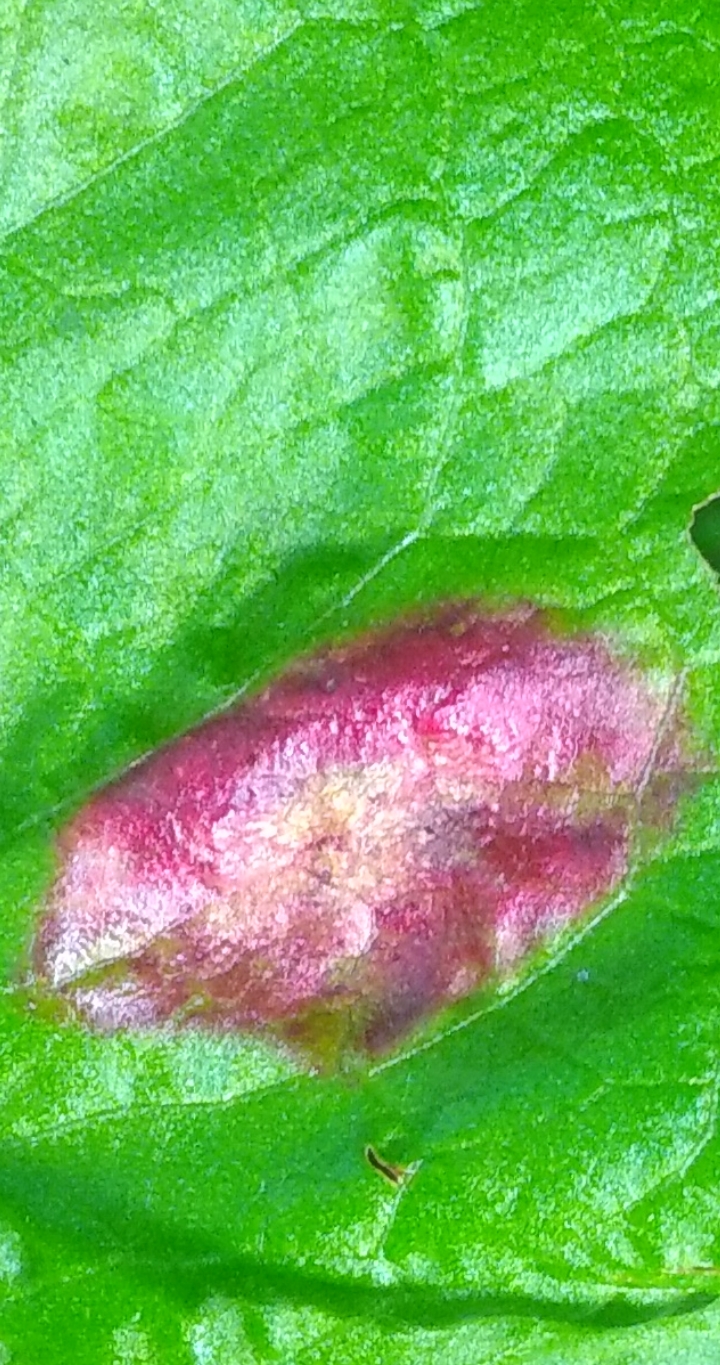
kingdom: Fungi
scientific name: Fungi
